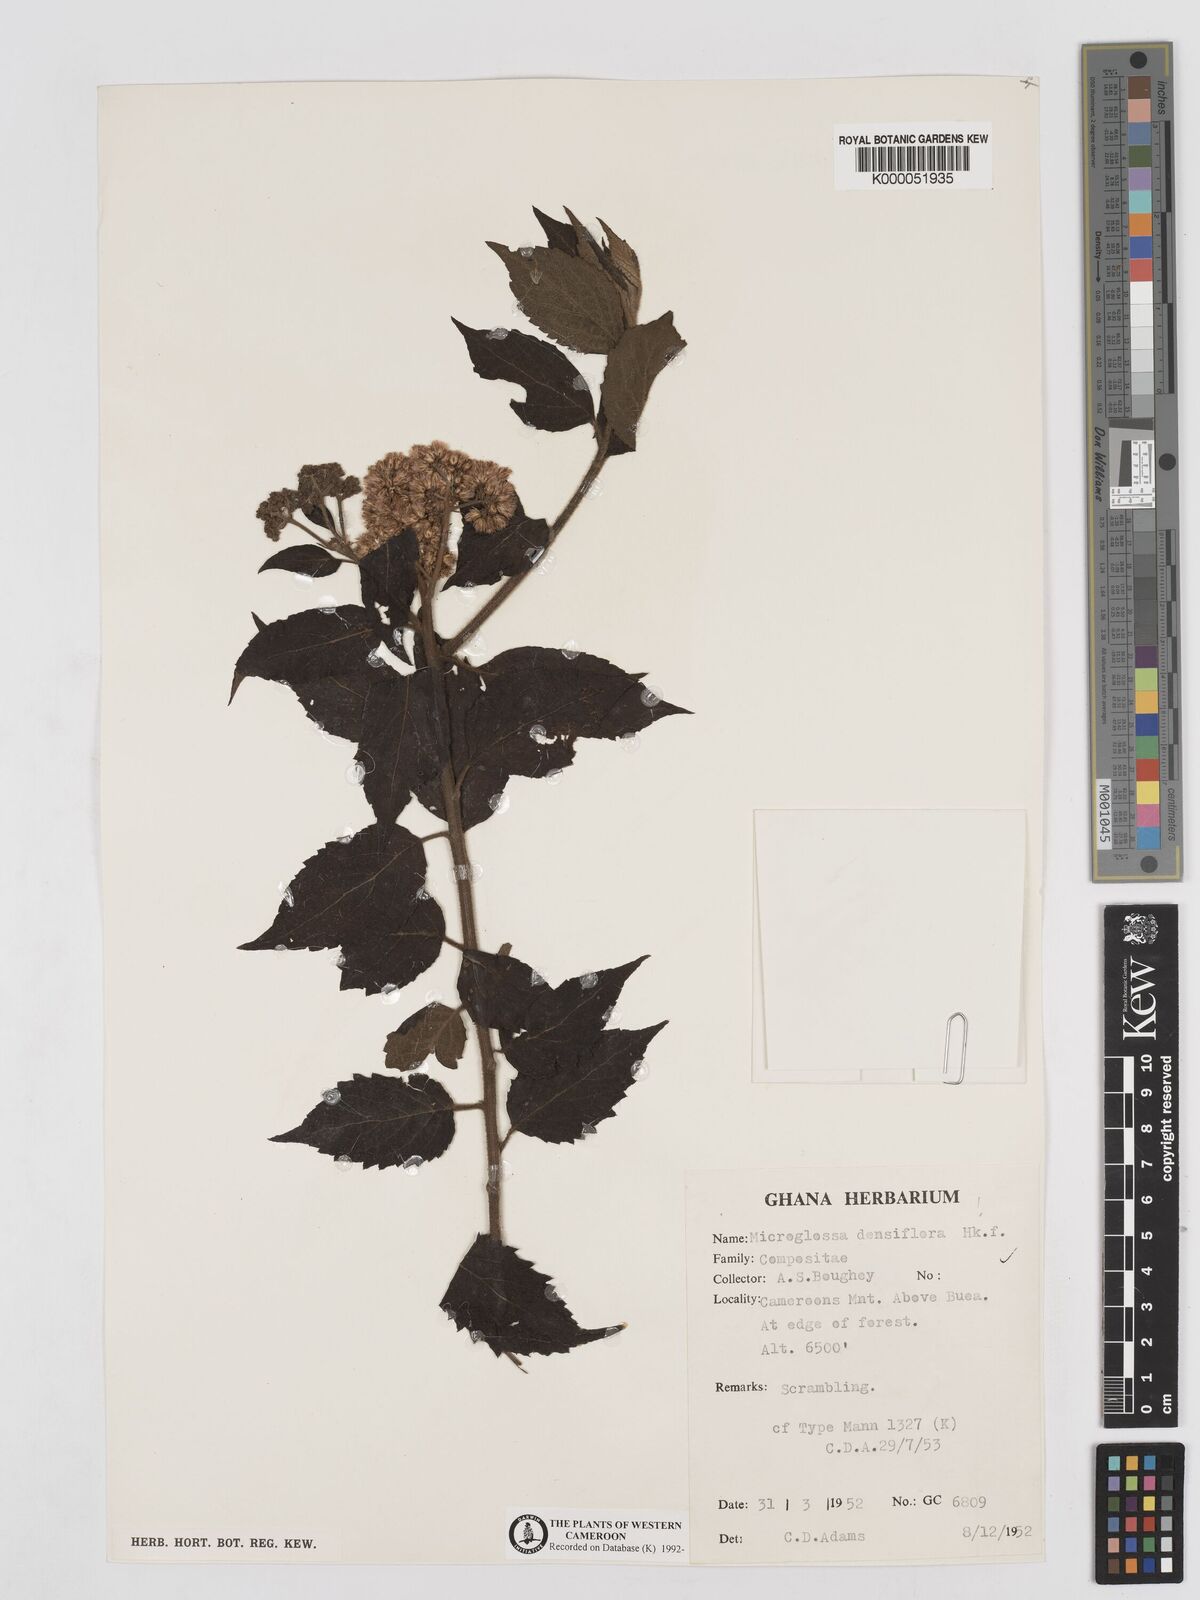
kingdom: Plantae
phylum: Tracheophyta
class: Magnoliopsida
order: Asterales
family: Asteraceae
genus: Microglossa
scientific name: Microglossa densiflora
